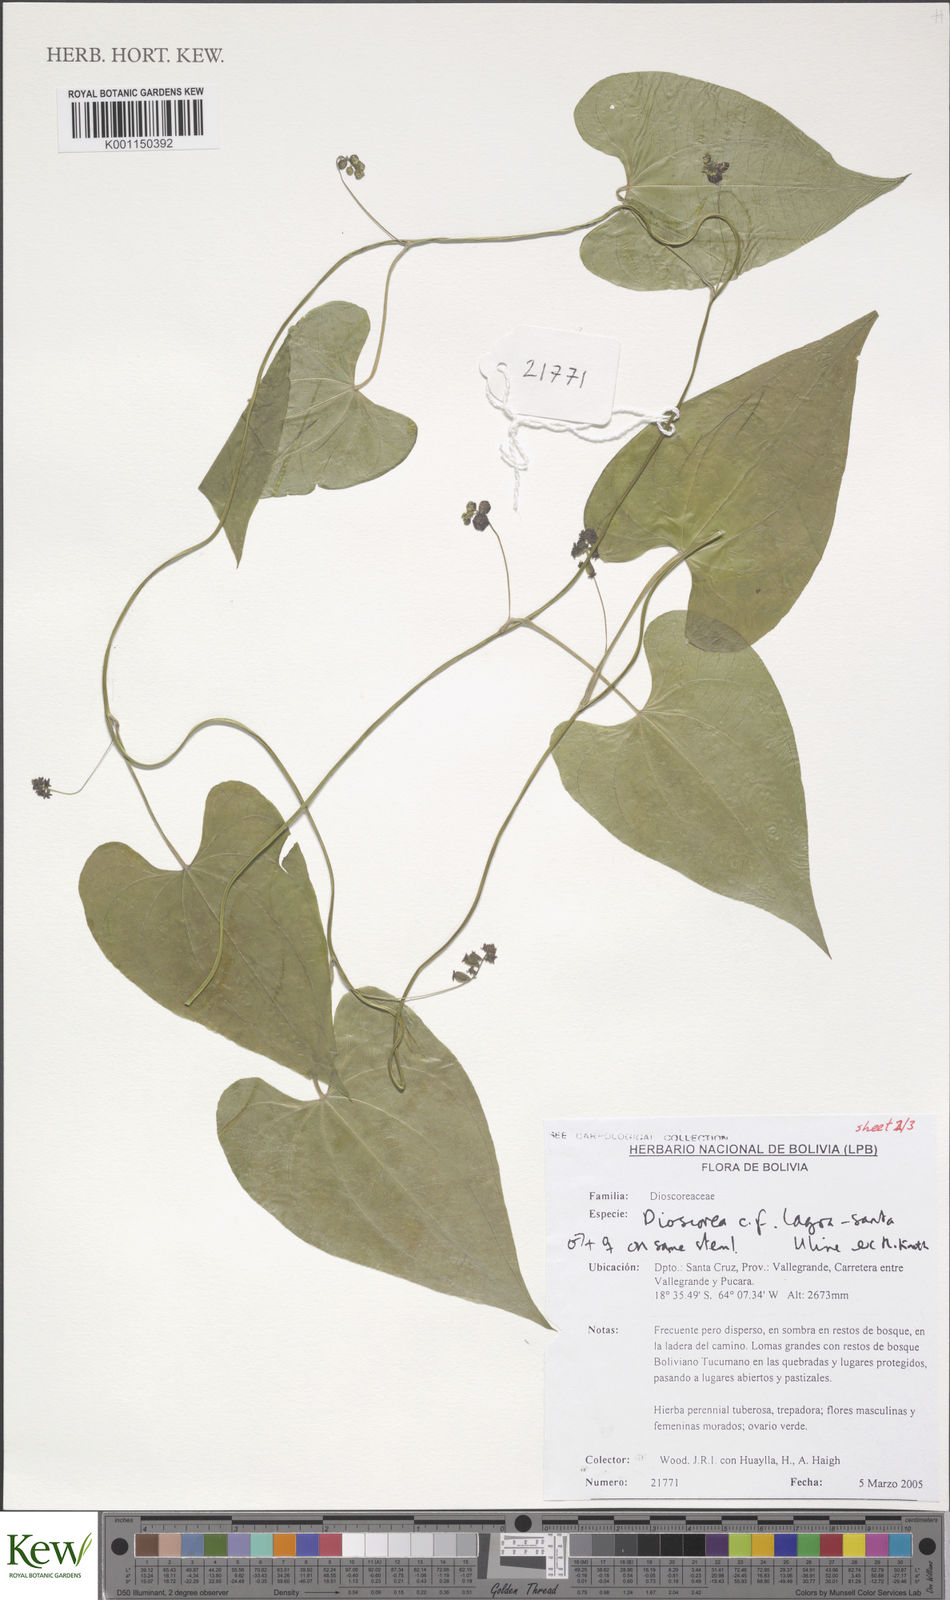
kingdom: Plantae
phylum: Tracheophyta
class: Liliopsida
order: Dioscoreales
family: Dioscoreaceae
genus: Dioscorea
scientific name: Dioscorea
